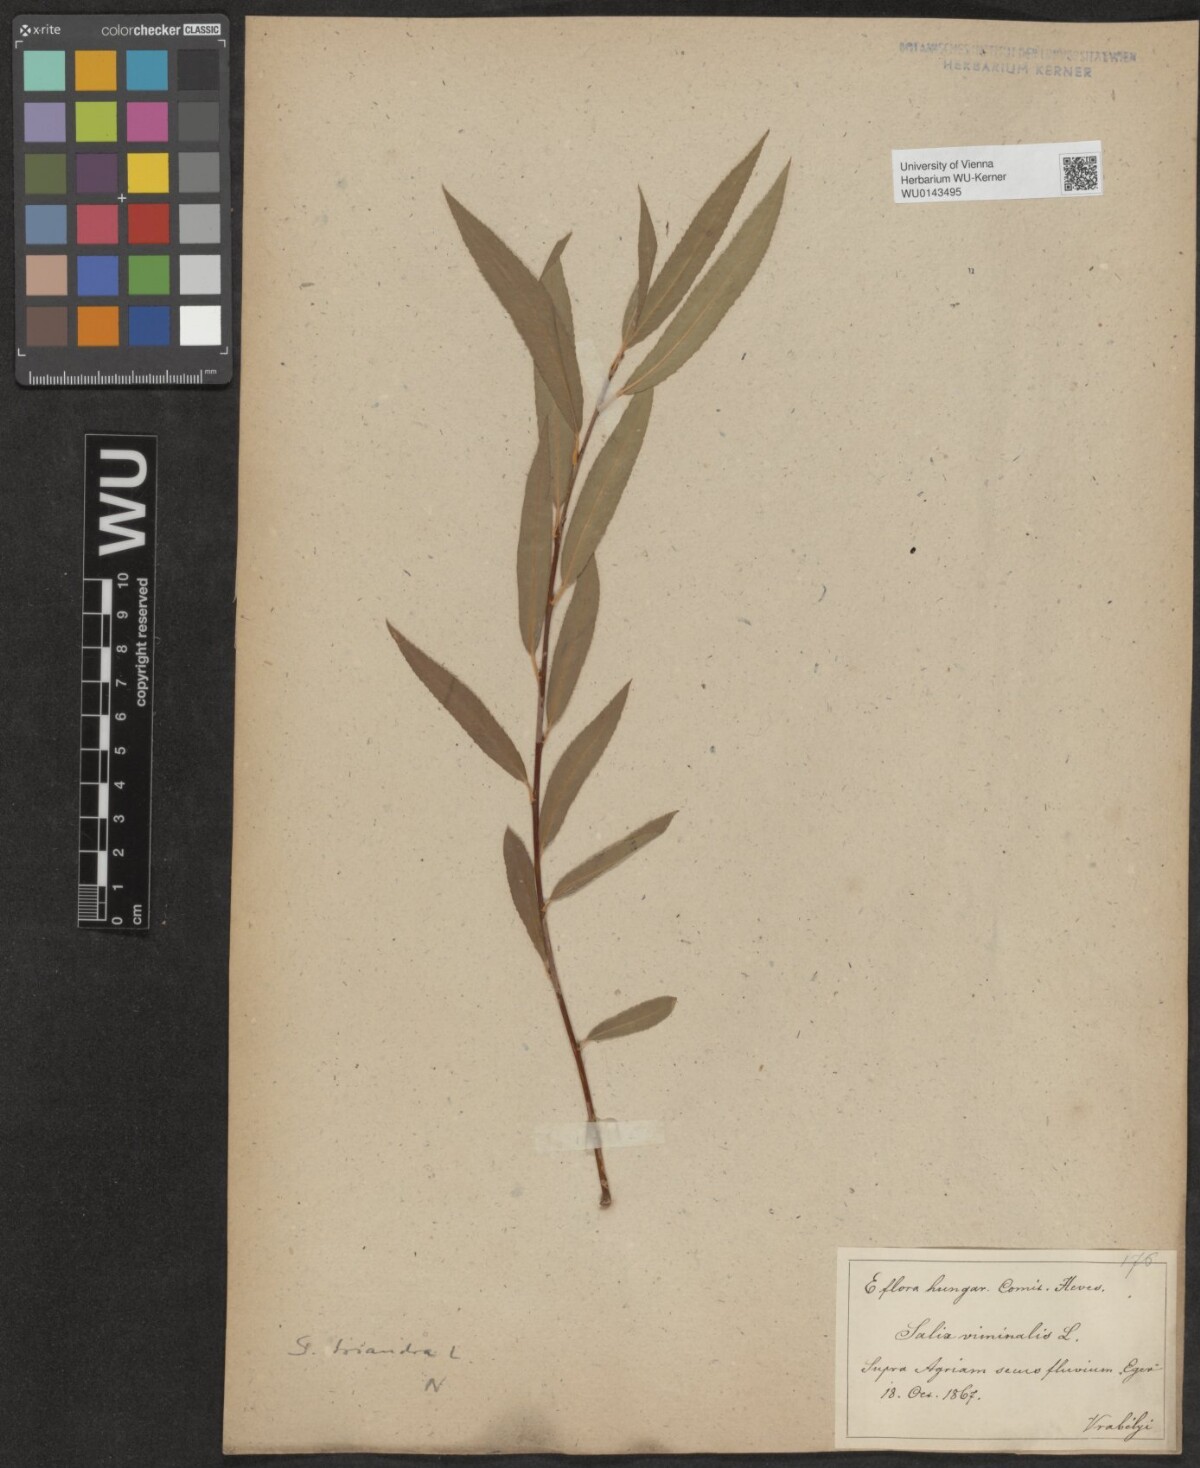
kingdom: Plantae
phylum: Tracheophyta
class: Magnoliopsida
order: Malpighiales
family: Salicaceae
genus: Salix
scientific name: Salix triandra
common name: Almond willow
